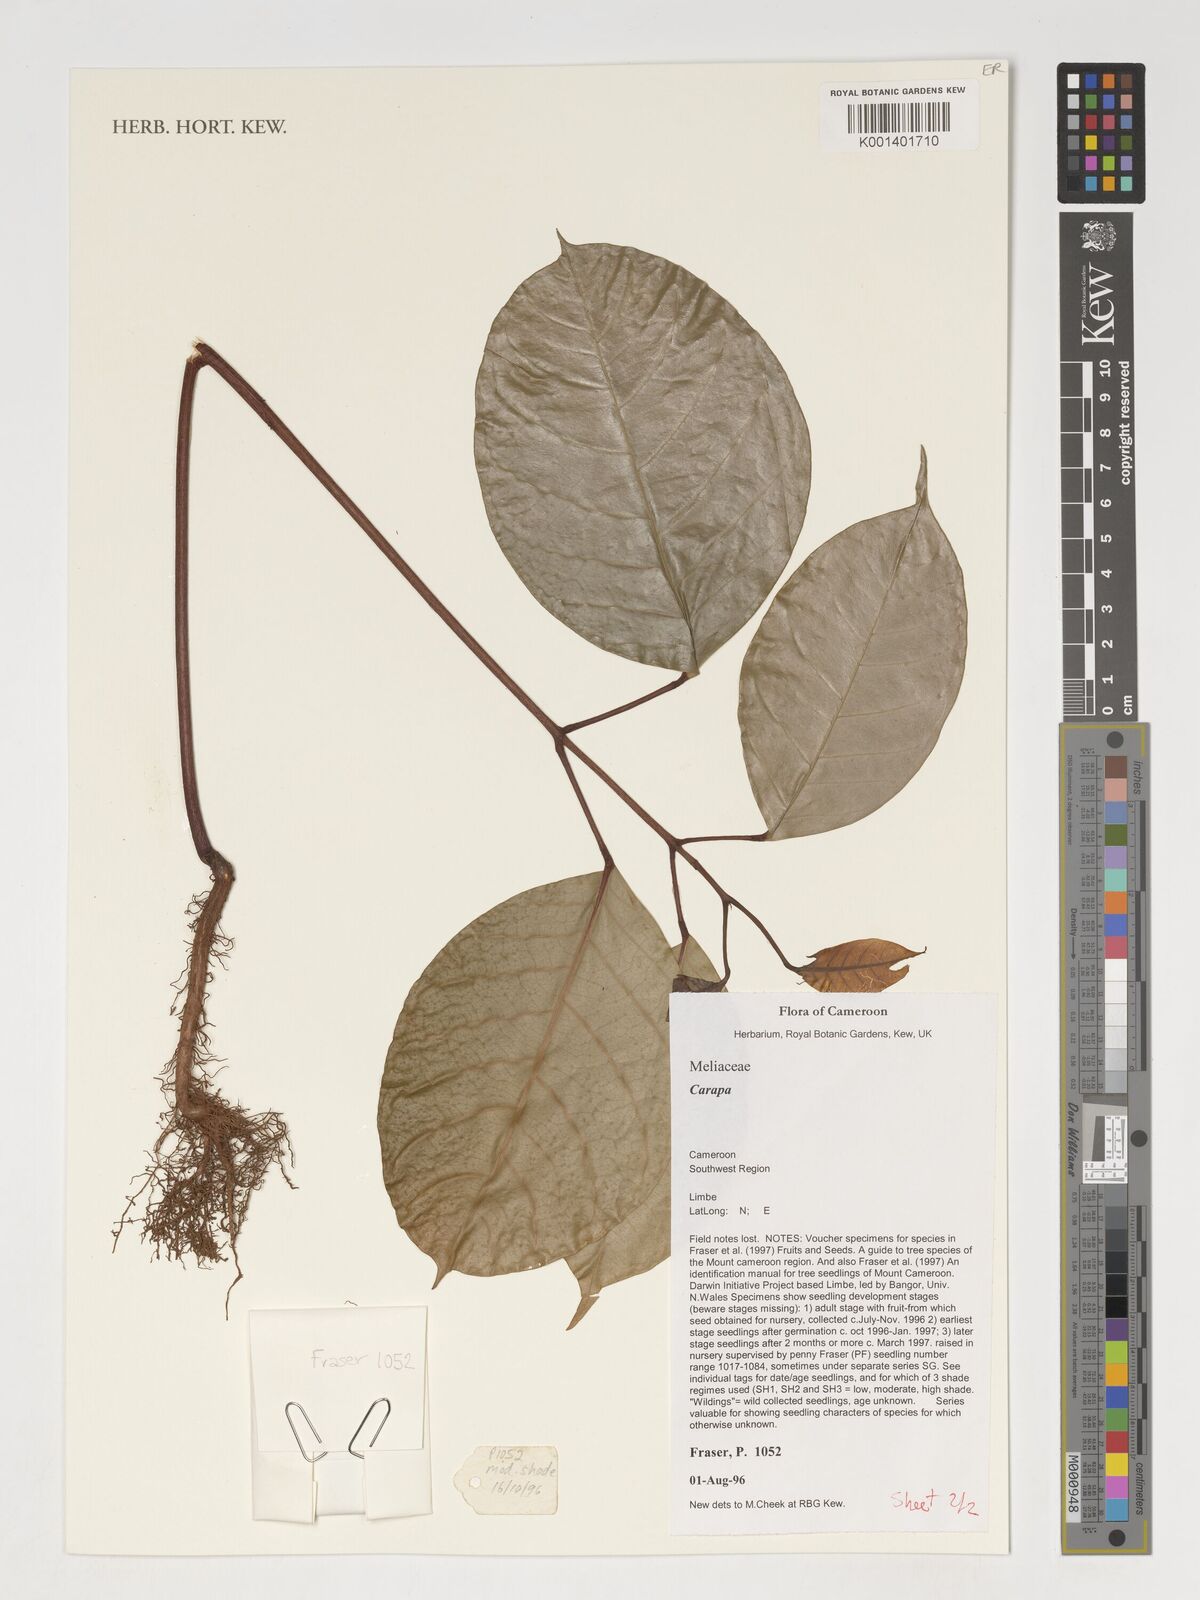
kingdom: Plantae
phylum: Tracheophyta
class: Magnoliopsida
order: Sapindales
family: Meliaceae
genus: Carapa
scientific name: Carapa
